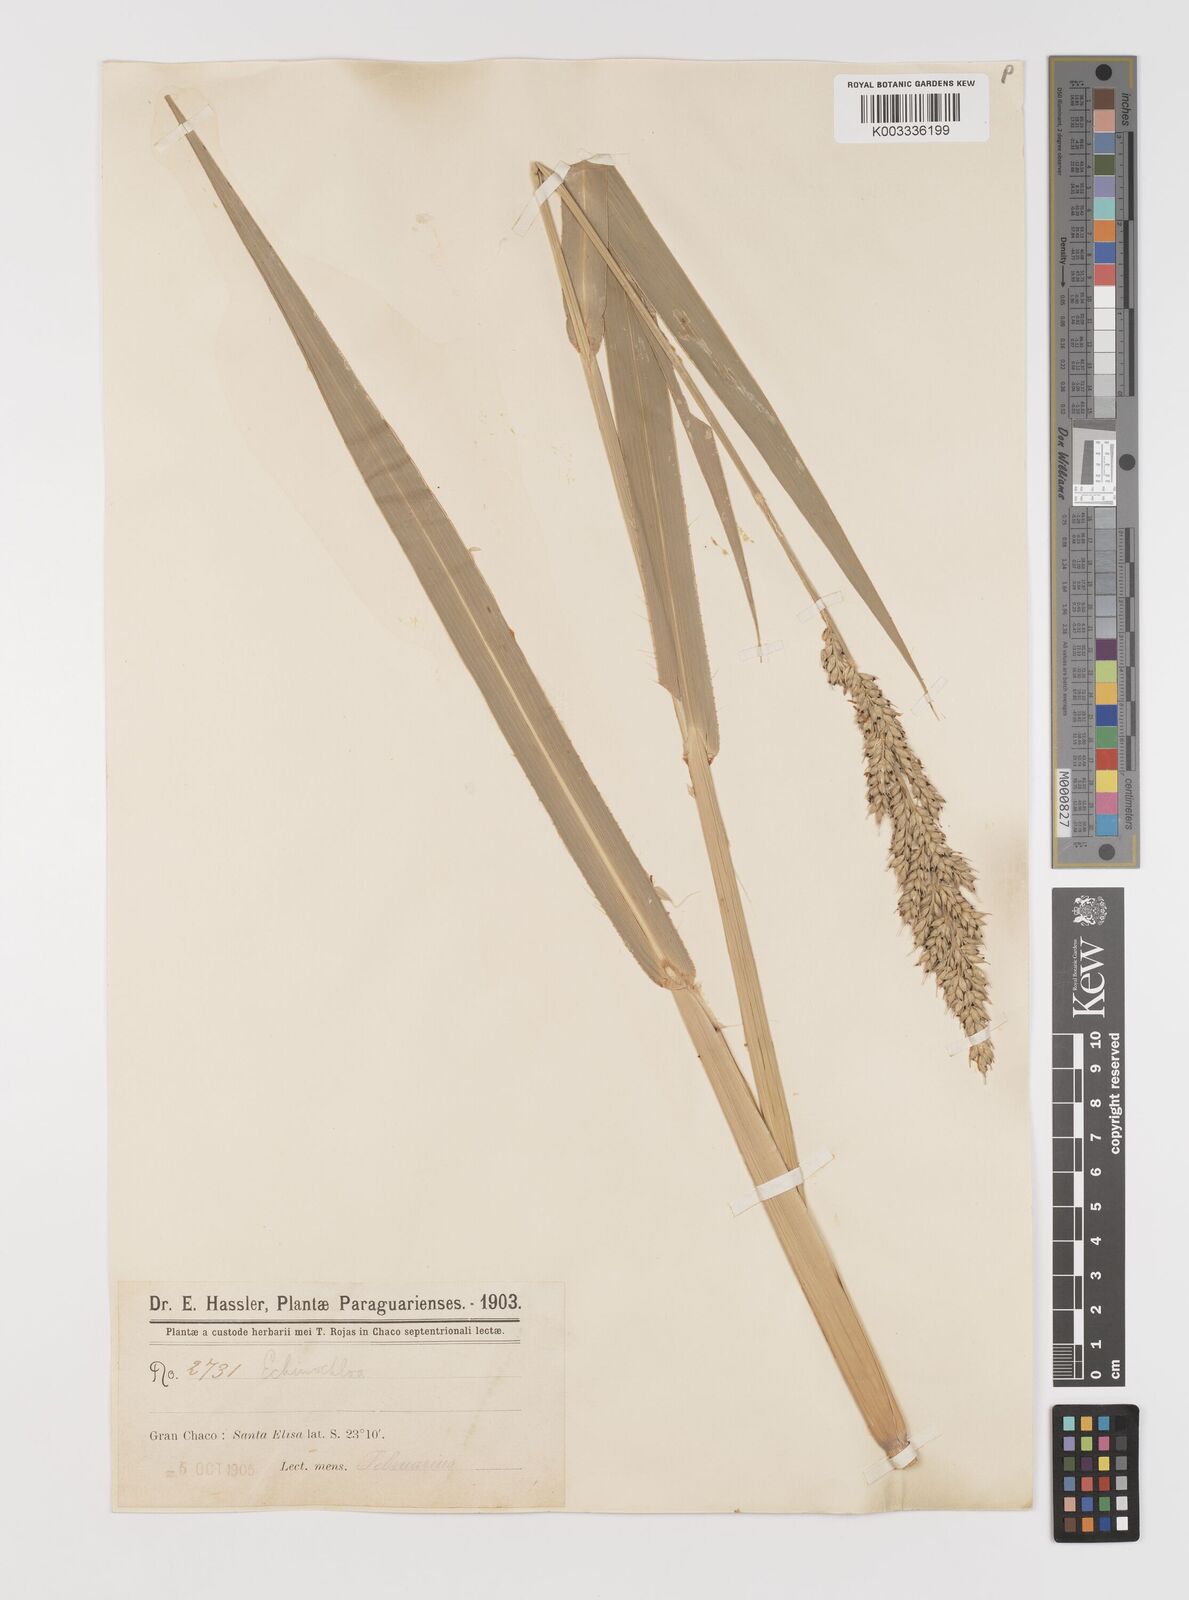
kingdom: Plantae
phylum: Tracheophyta
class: Liliopsida
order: Poales
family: Poaceae
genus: Echinochloa
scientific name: Echinochloa polystachya
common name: Creeping river grass
